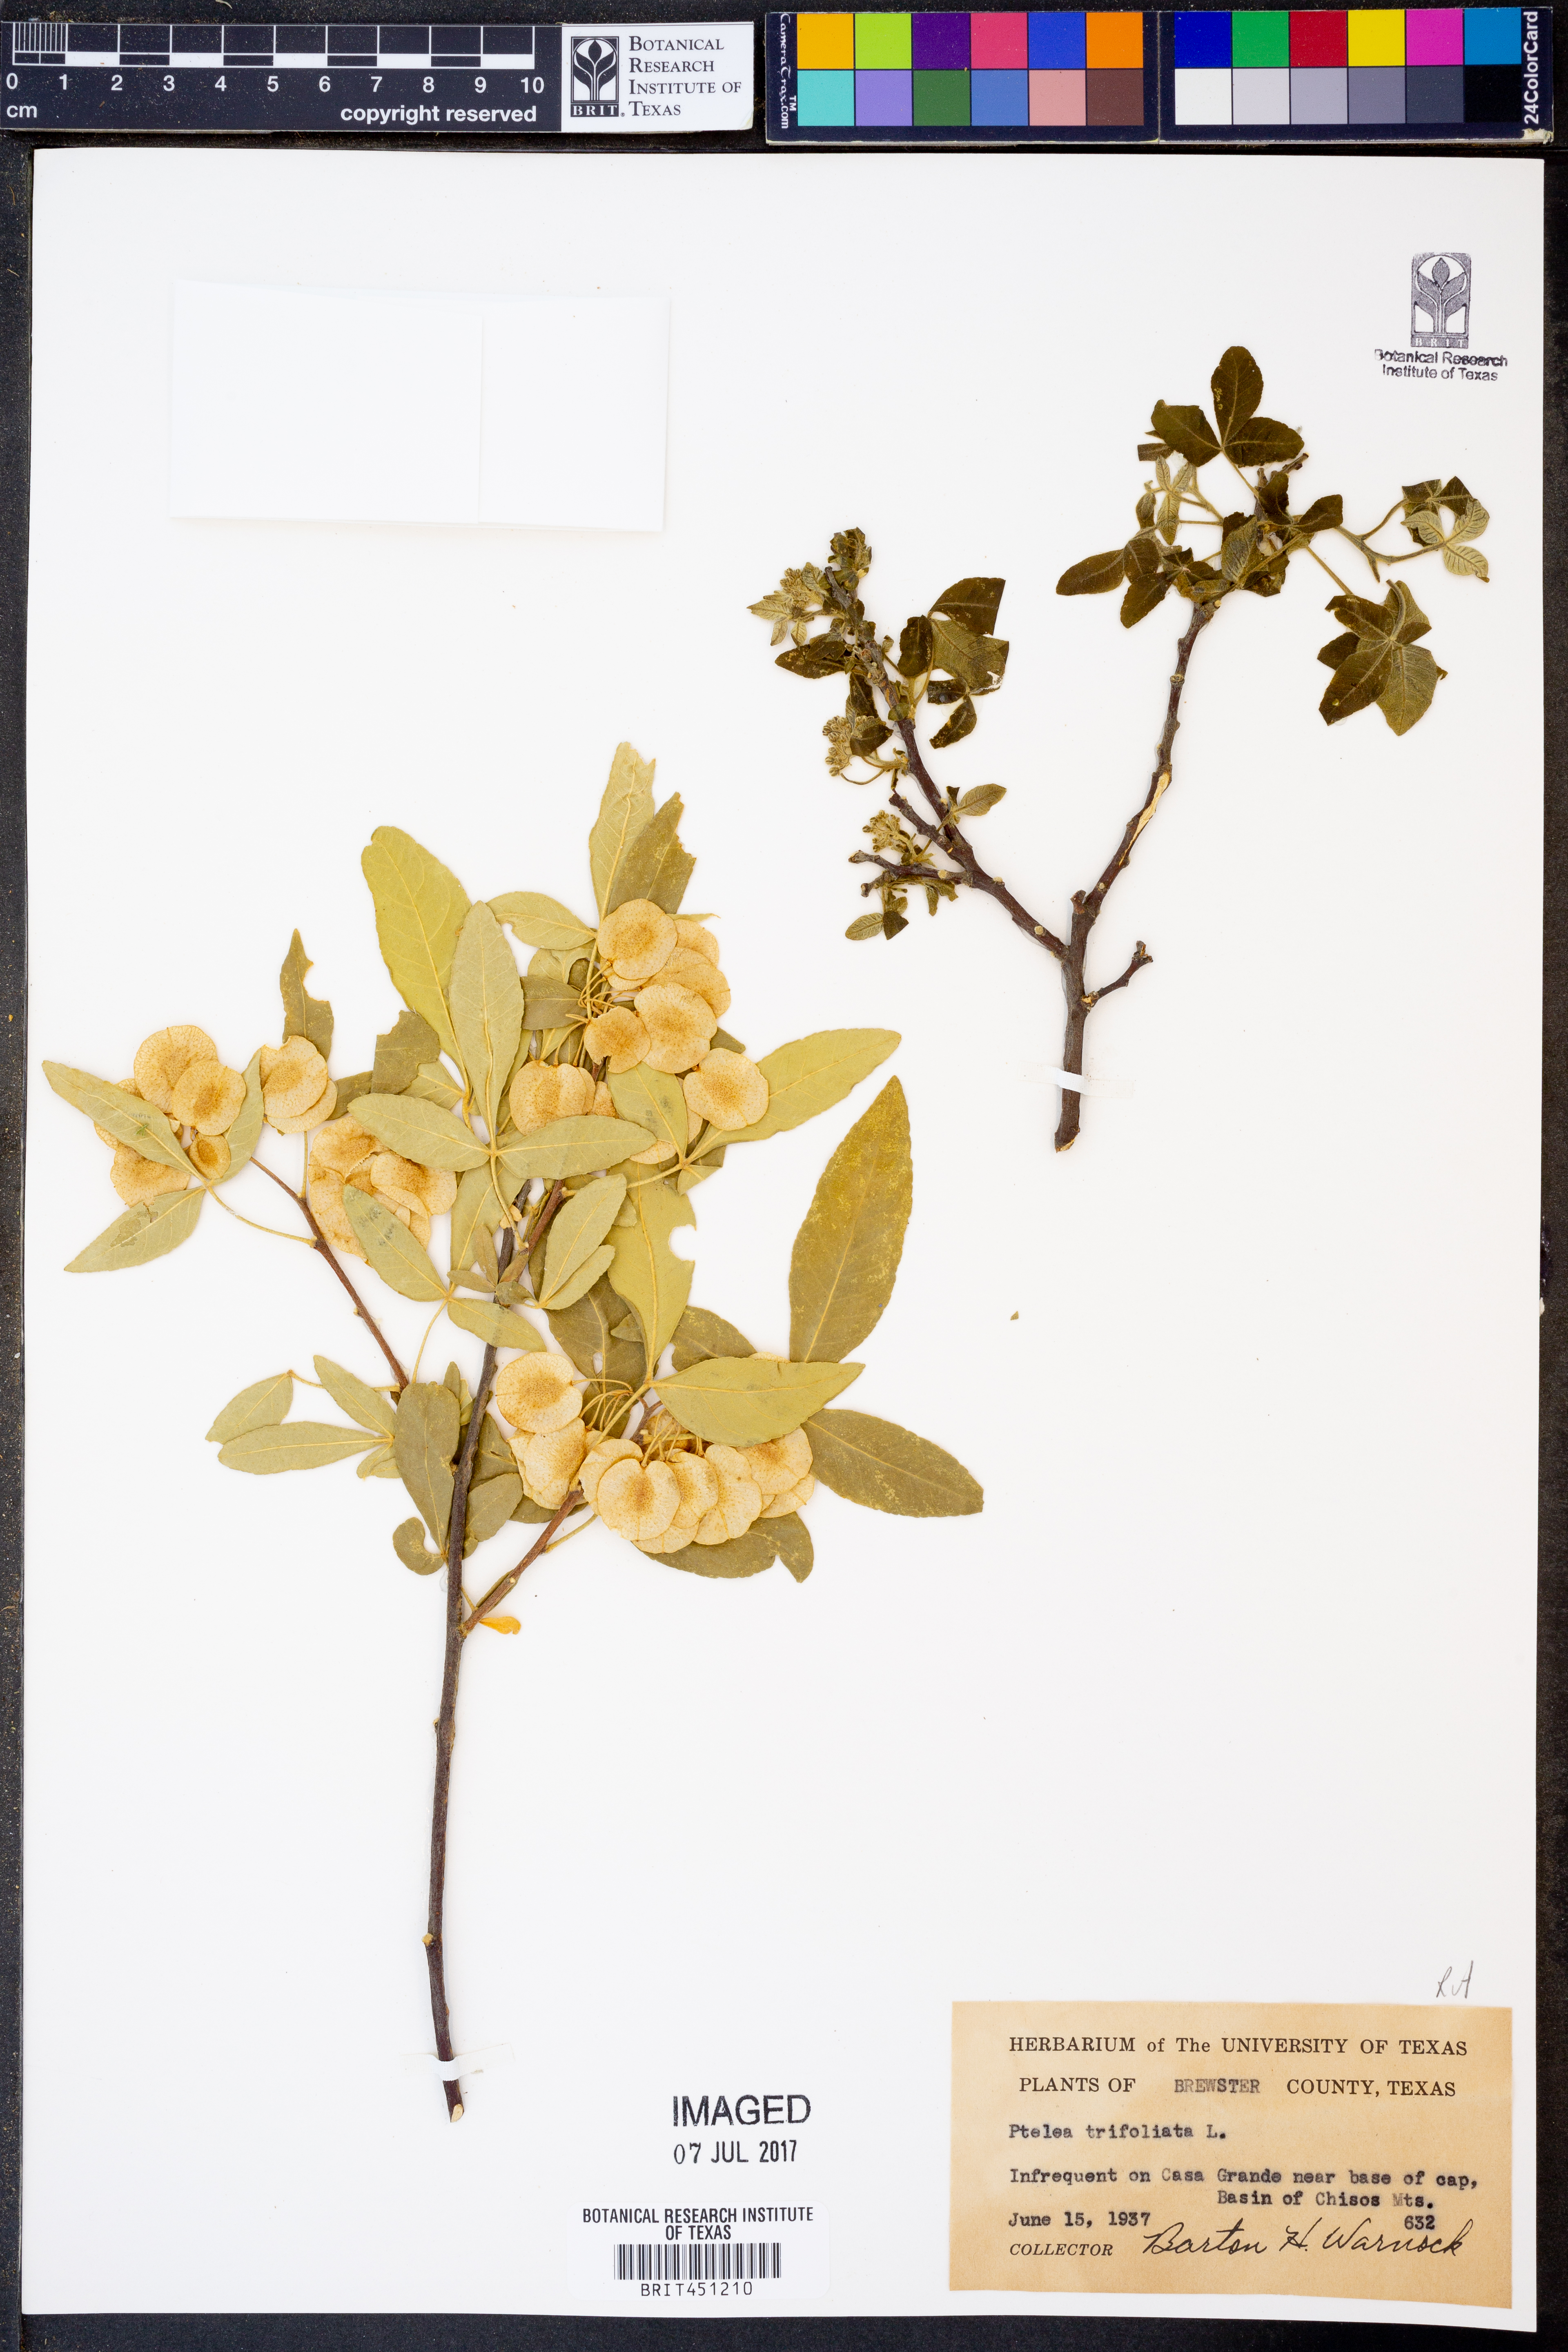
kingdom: Plantae
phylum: Tracheophyta
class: Magnoliopsida
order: Sapindales
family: Rutaceae
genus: Ptelea
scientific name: Ptelea trifoliata
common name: Common hop-tree
